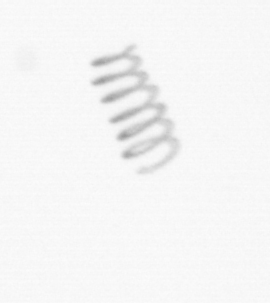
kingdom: Chromista
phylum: Ochrophyta
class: Bacillariophyceae
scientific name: Bacillariophyceae
